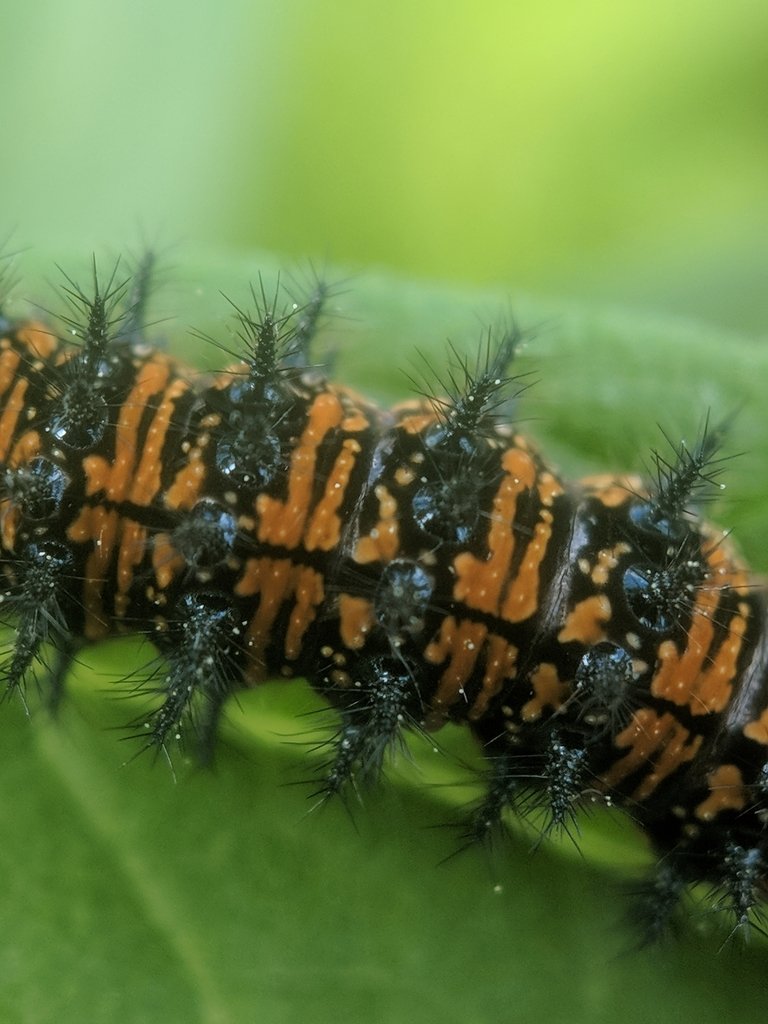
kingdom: Animalia
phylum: Arthropoda
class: Insecta
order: Lepidoptera
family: Nymphalidae
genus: Chlosyne
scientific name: Chlosyne
